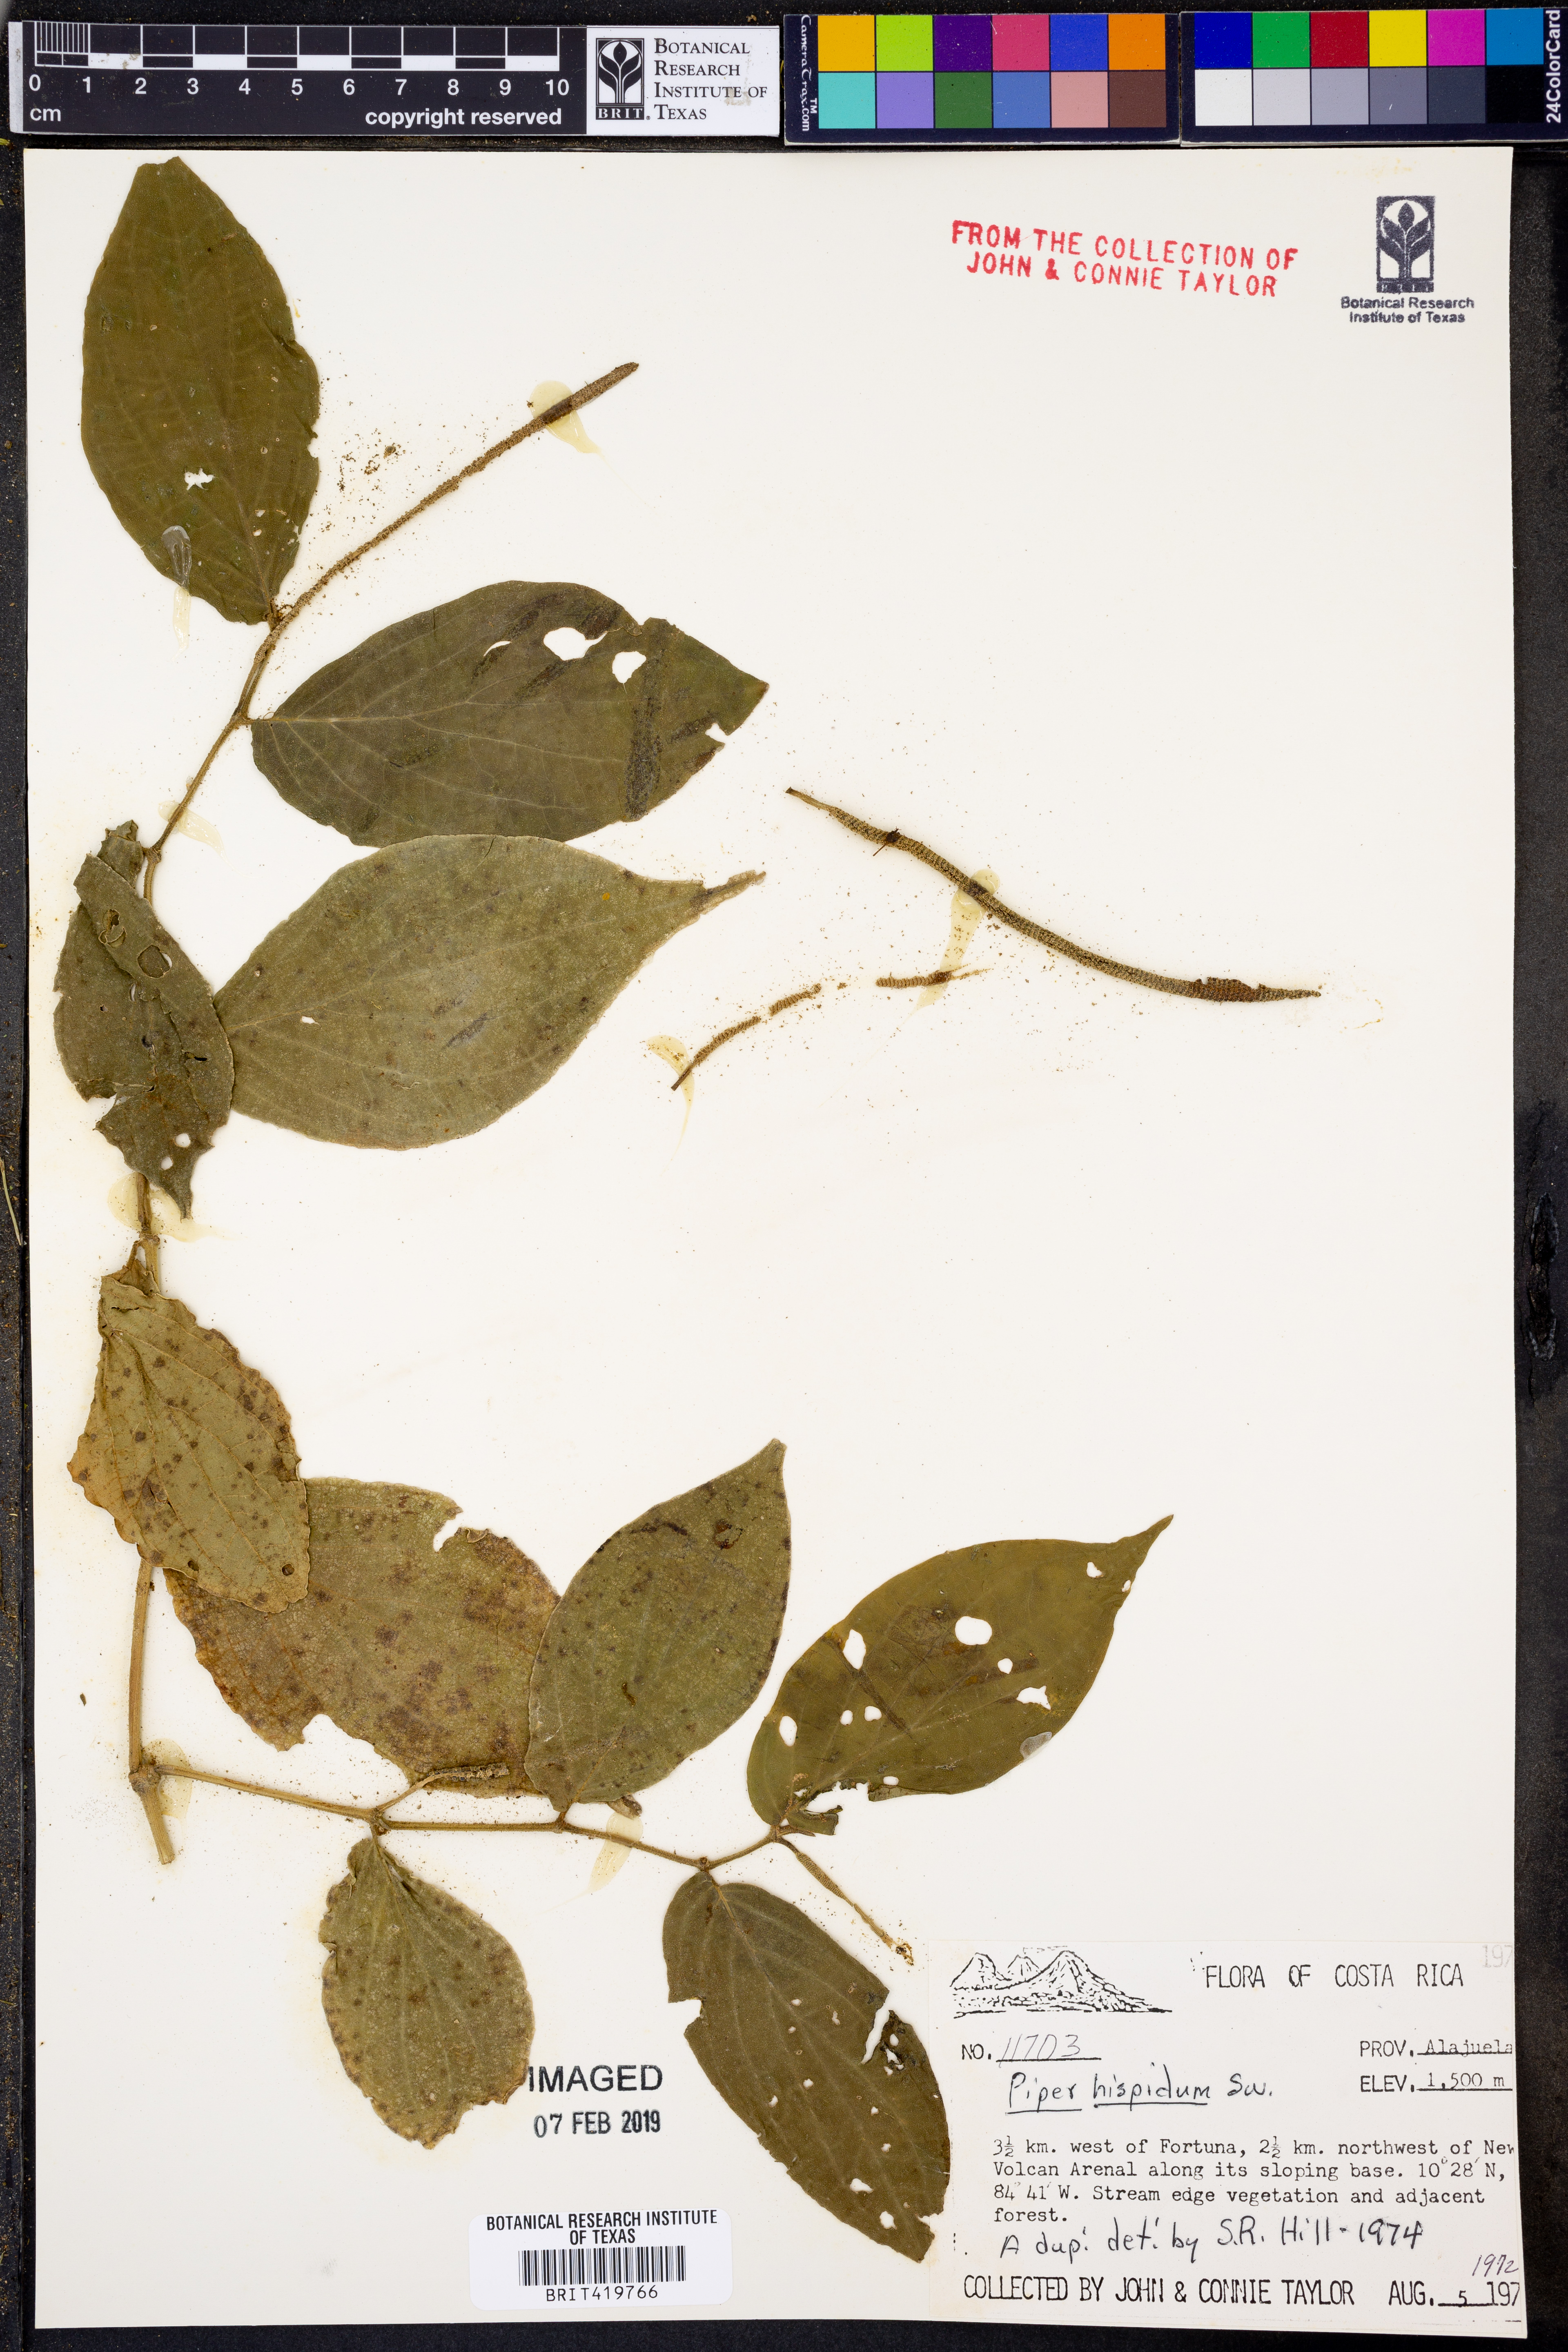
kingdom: Plantae
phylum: Tracheophyta
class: Magnoliopsida
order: Piperales
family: Piperaceae
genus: Piper
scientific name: Piper hispidum
